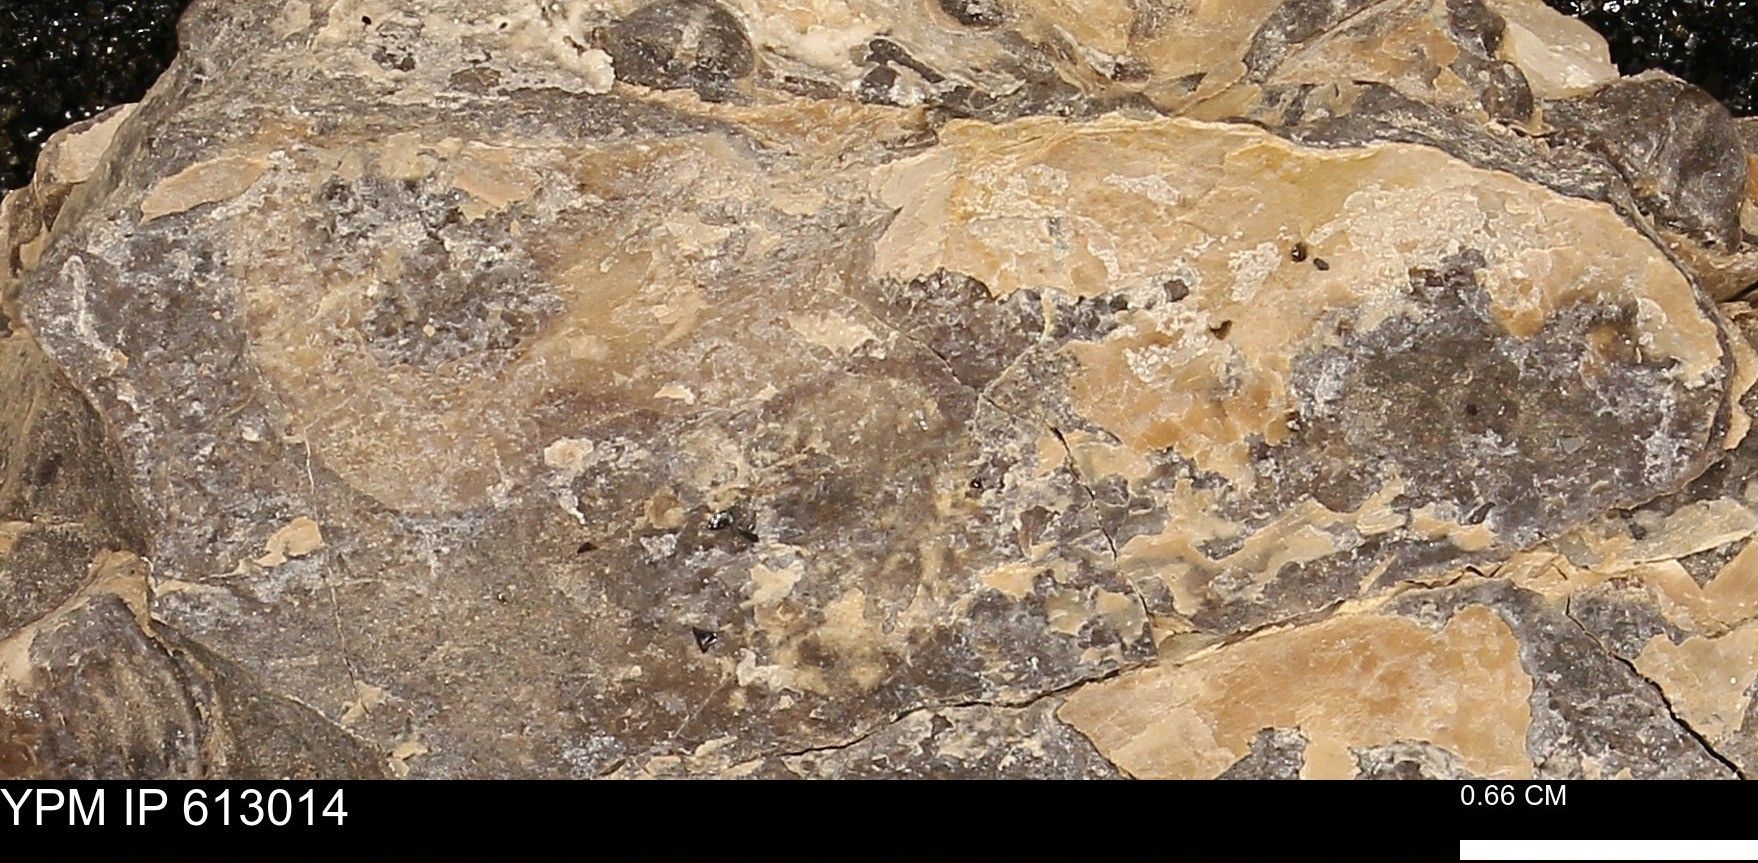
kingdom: Animalia
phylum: Mollusca
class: Bivalvia
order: Ostreida
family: Bakevelliidae
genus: Pseudoptera
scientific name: Pseudoptera
